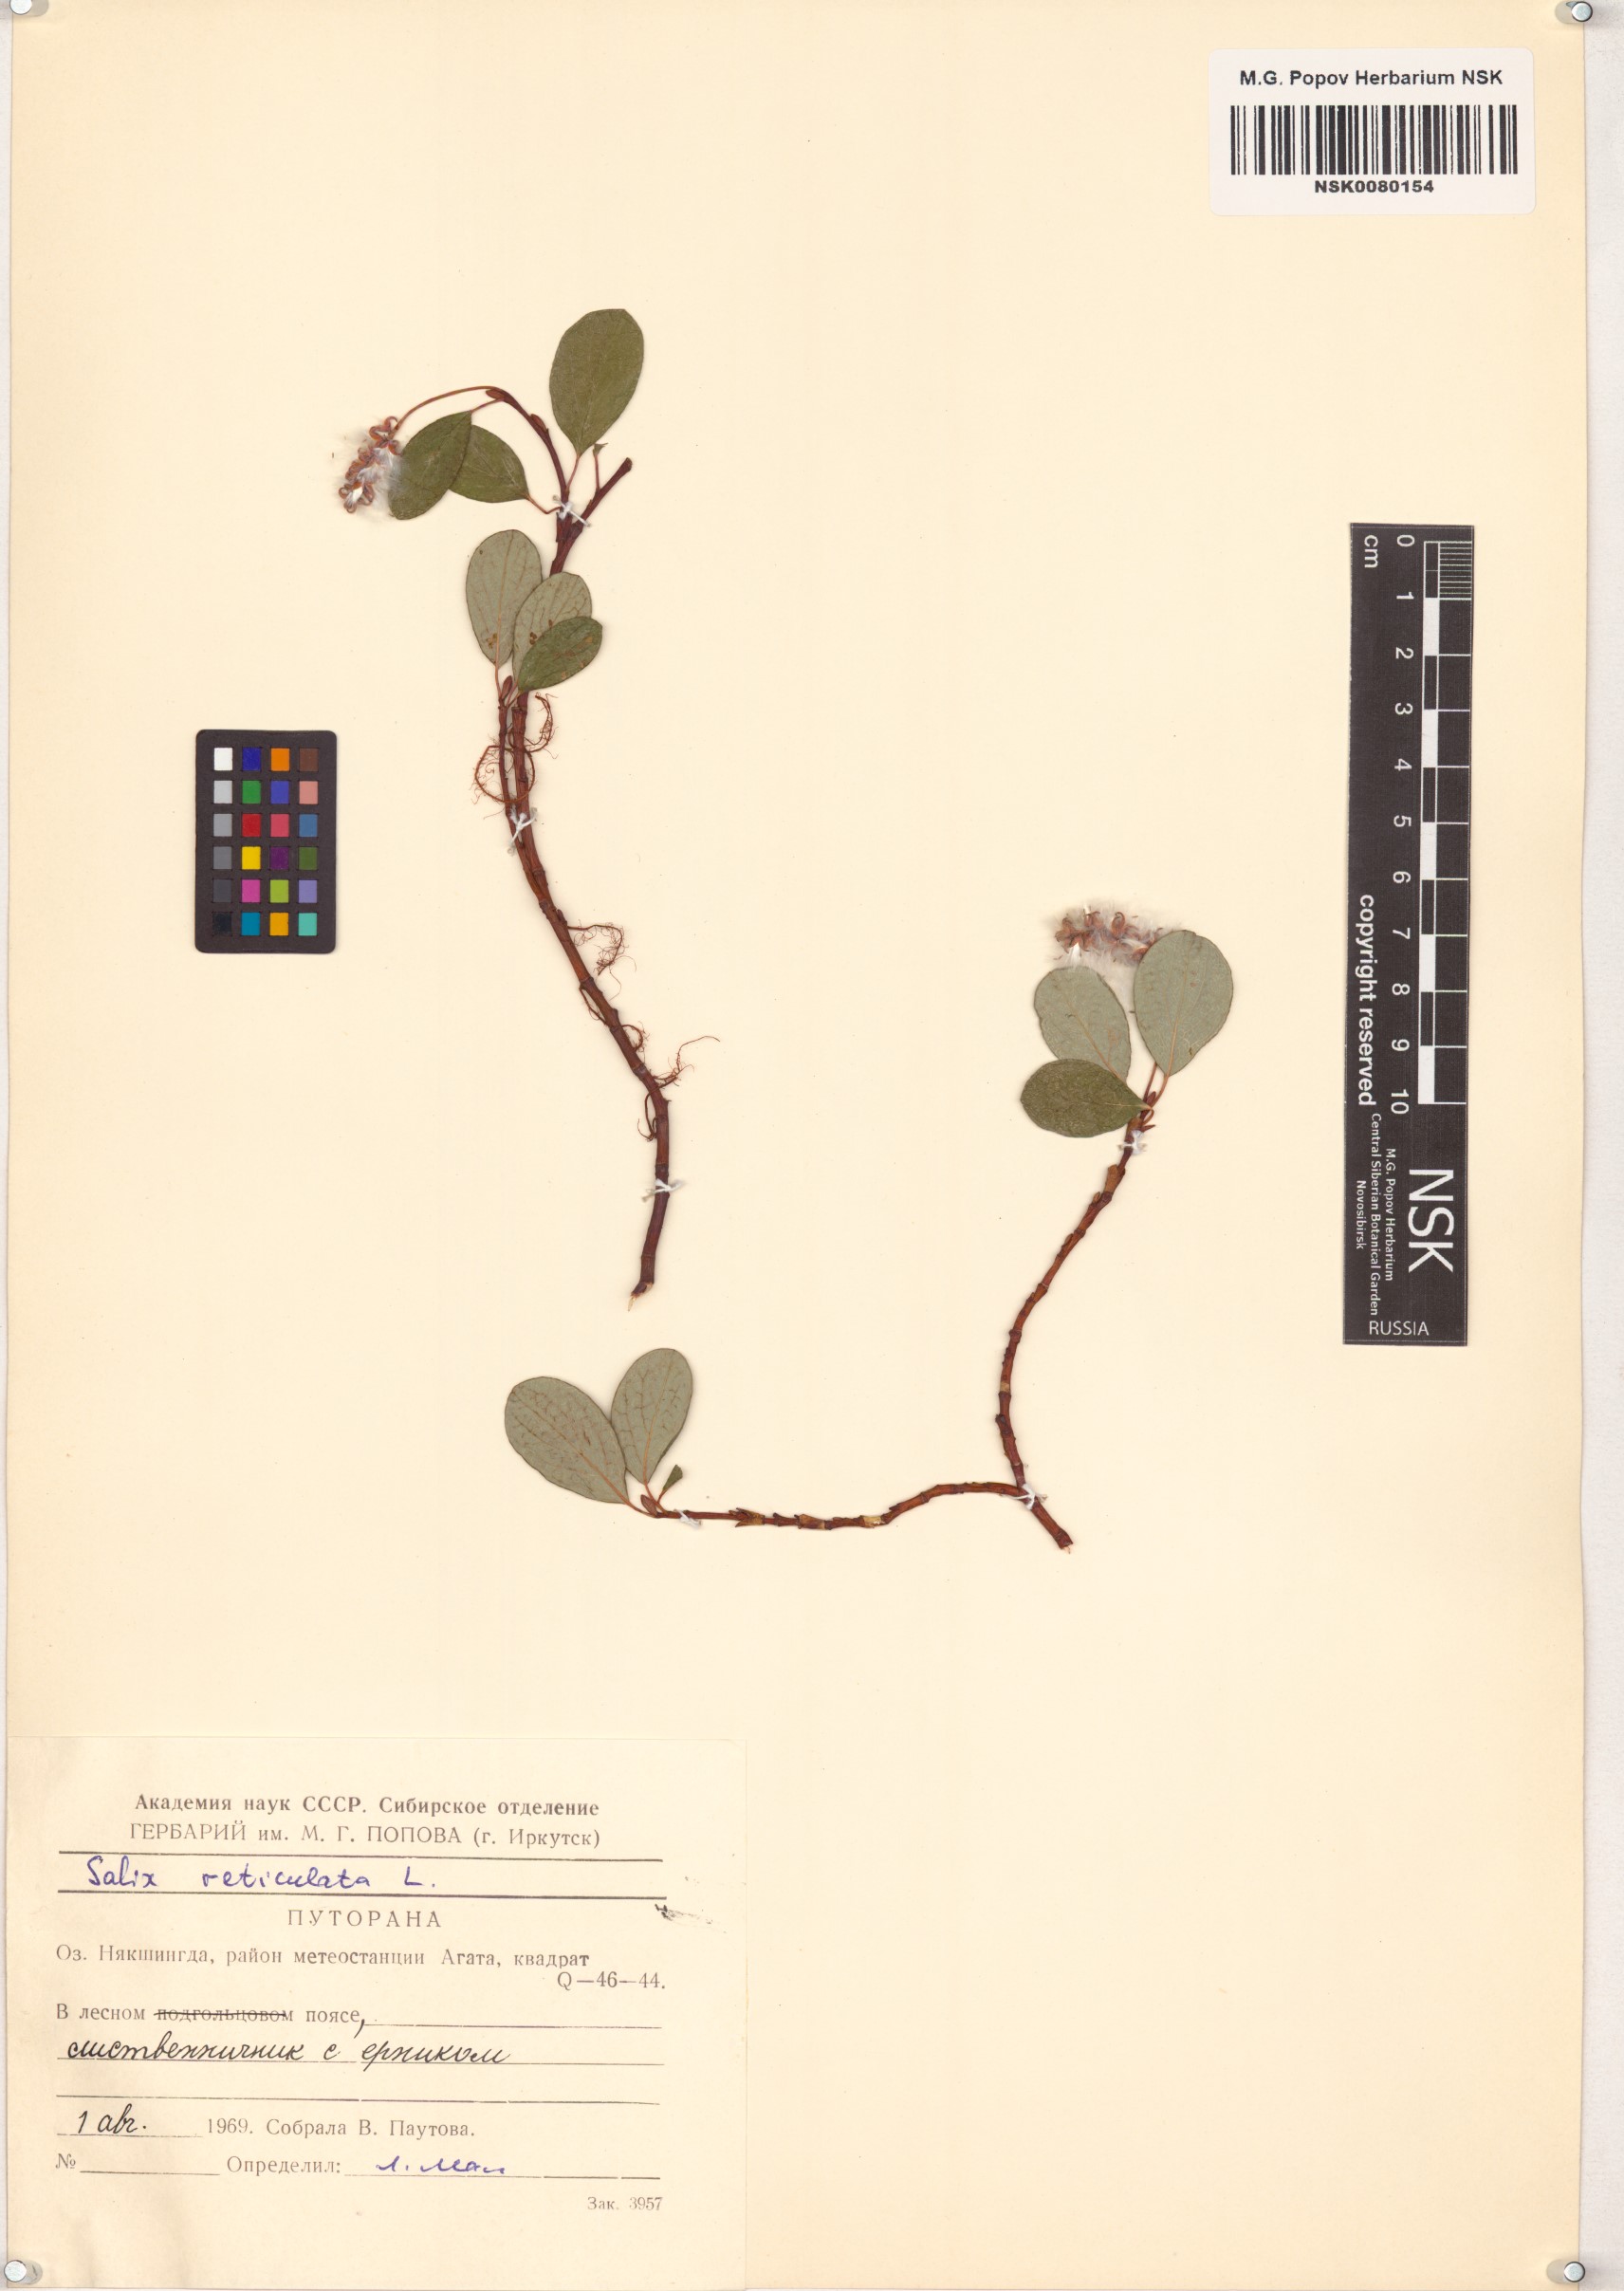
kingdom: Plantae
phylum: Tracheophyta
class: Magnoliopsida
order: Malpighiales
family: Salicaceae
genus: Salix
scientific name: Salix reticulata
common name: Net-leaved willow
